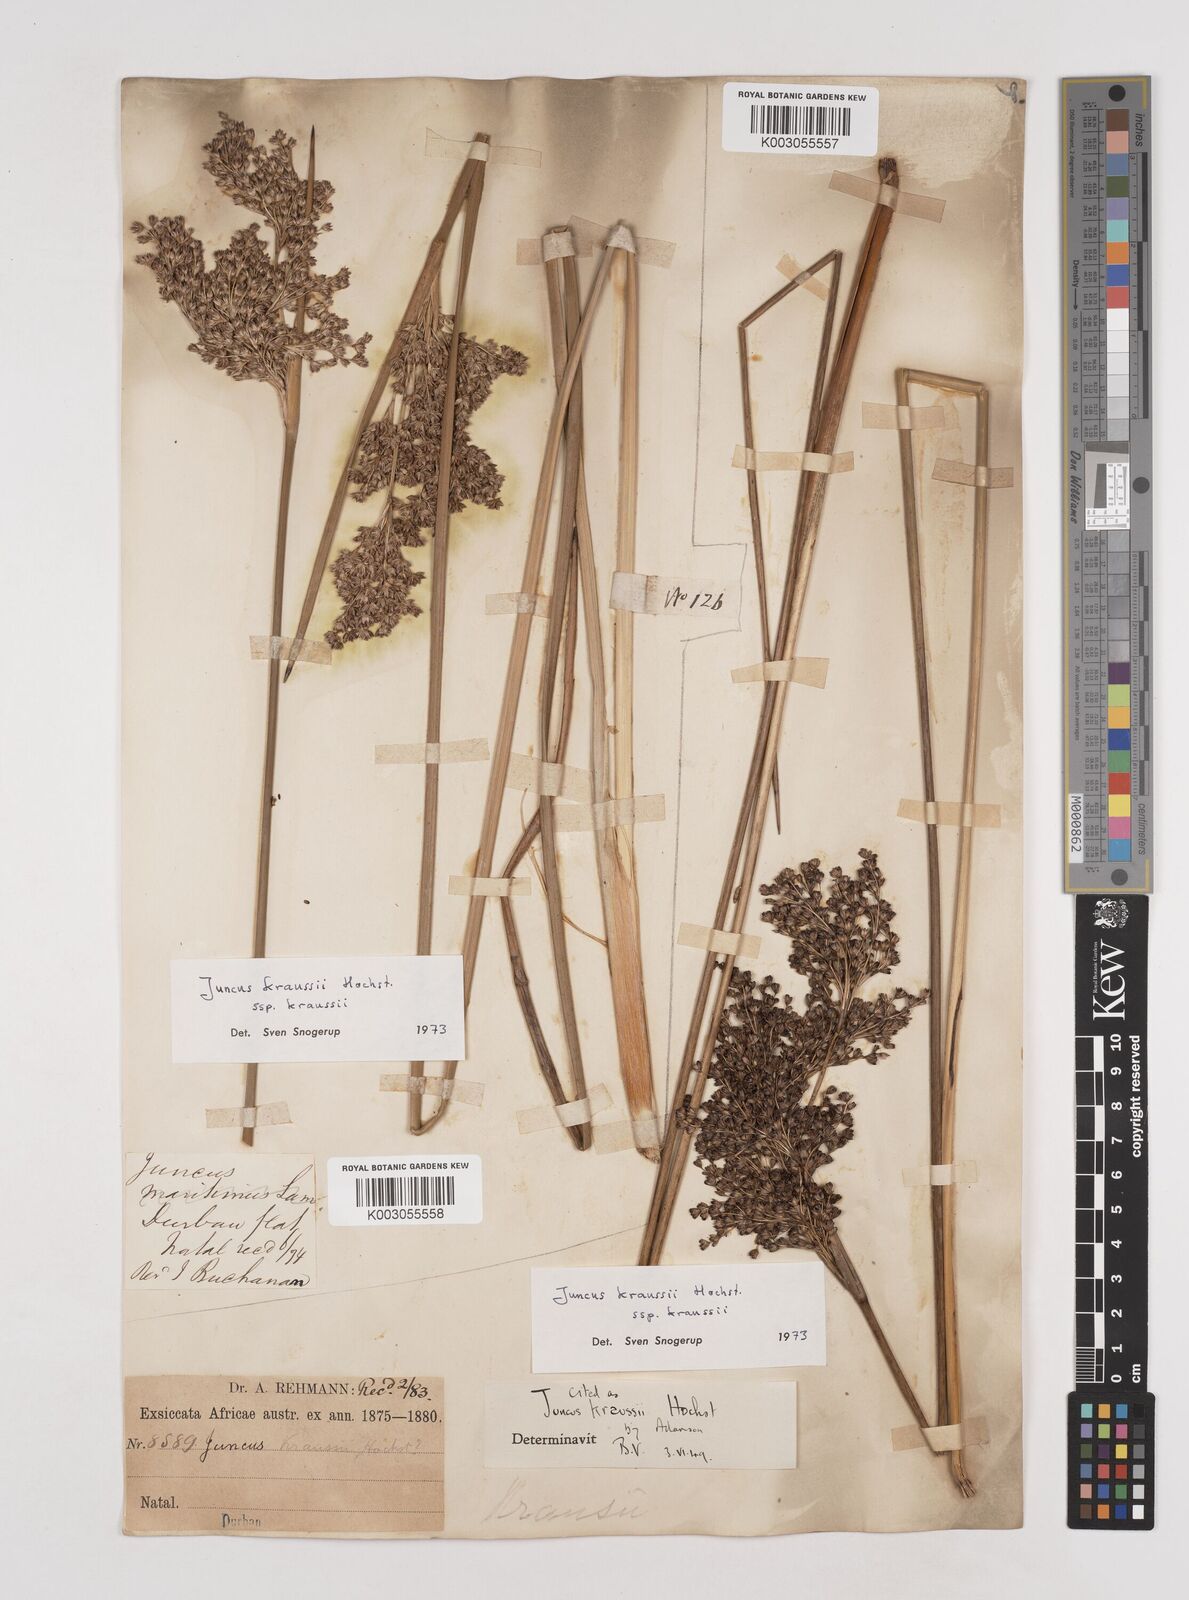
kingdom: Plantae
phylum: Tracheophyta
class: Liliopsida
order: Poales
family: Juncaceae
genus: Juncus
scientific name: Juncus kraussii
